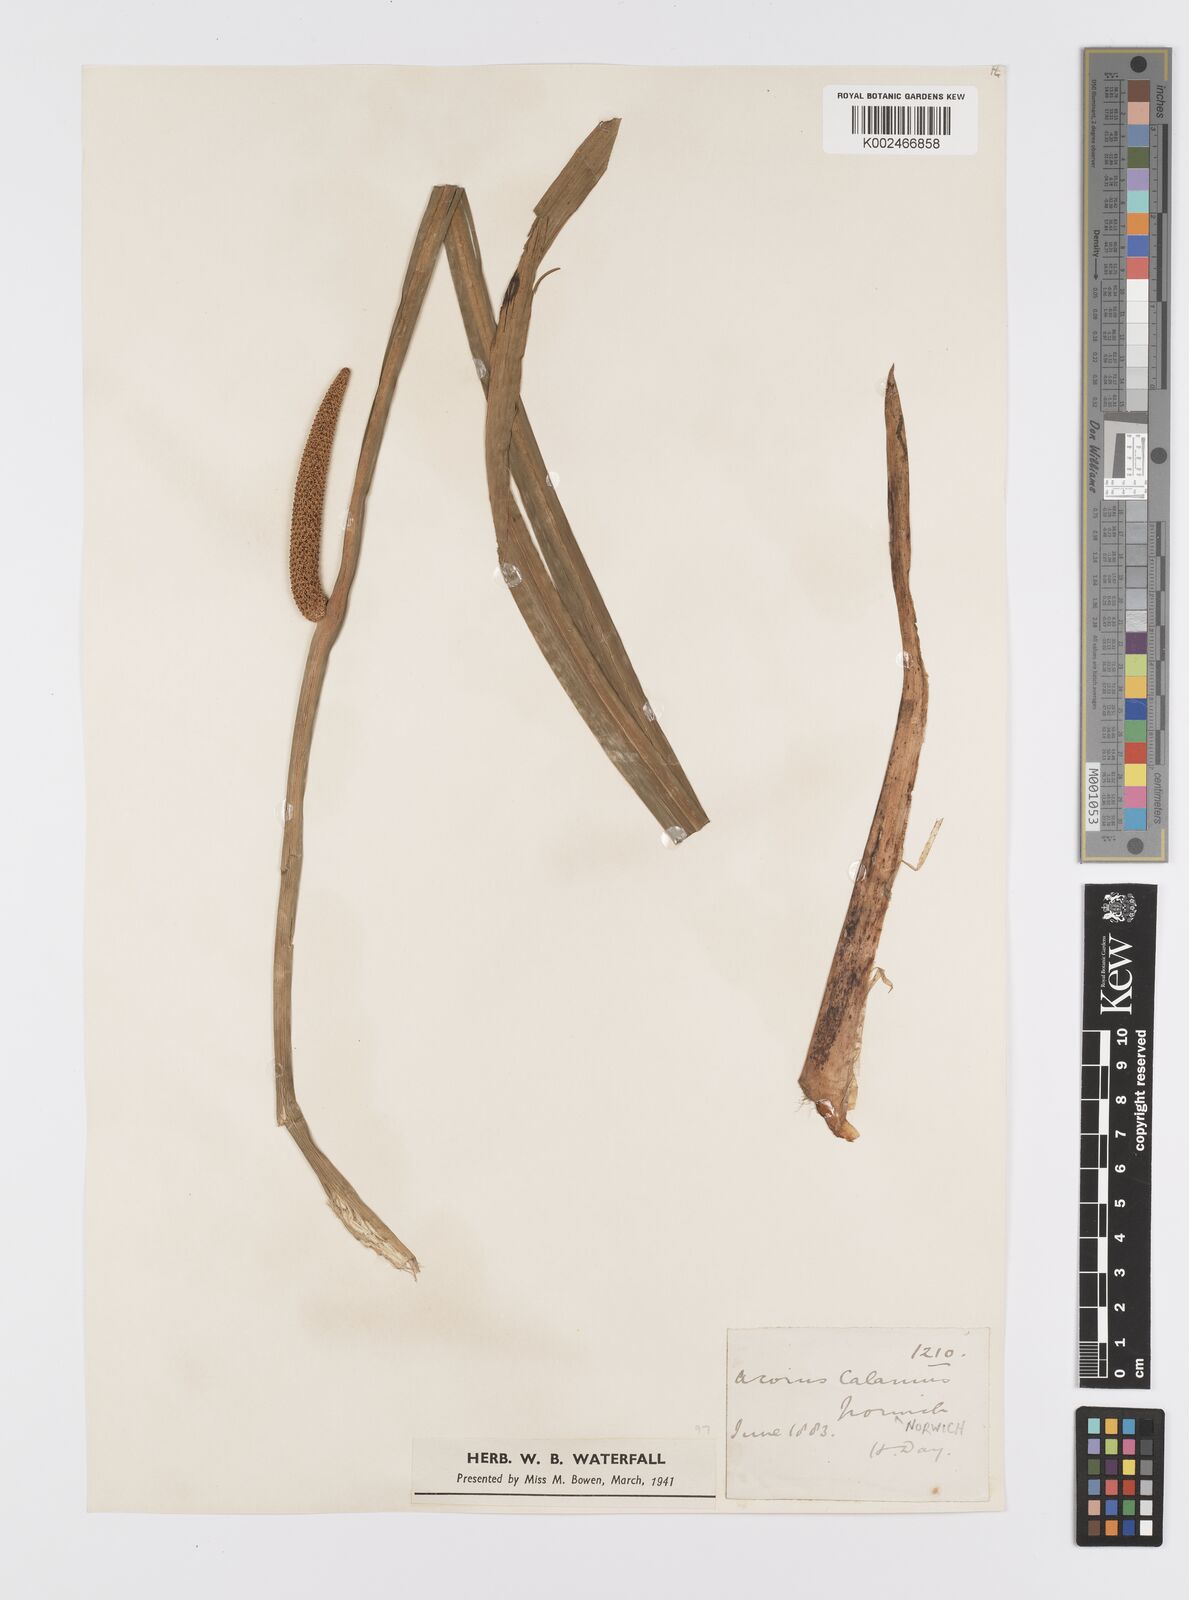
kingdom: Plantae
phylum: Tracheophyta
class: Liliopsida
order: Acorales
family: Acoraceae
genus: Acorus
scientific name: Acorus calamus
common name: Sweet-flag
